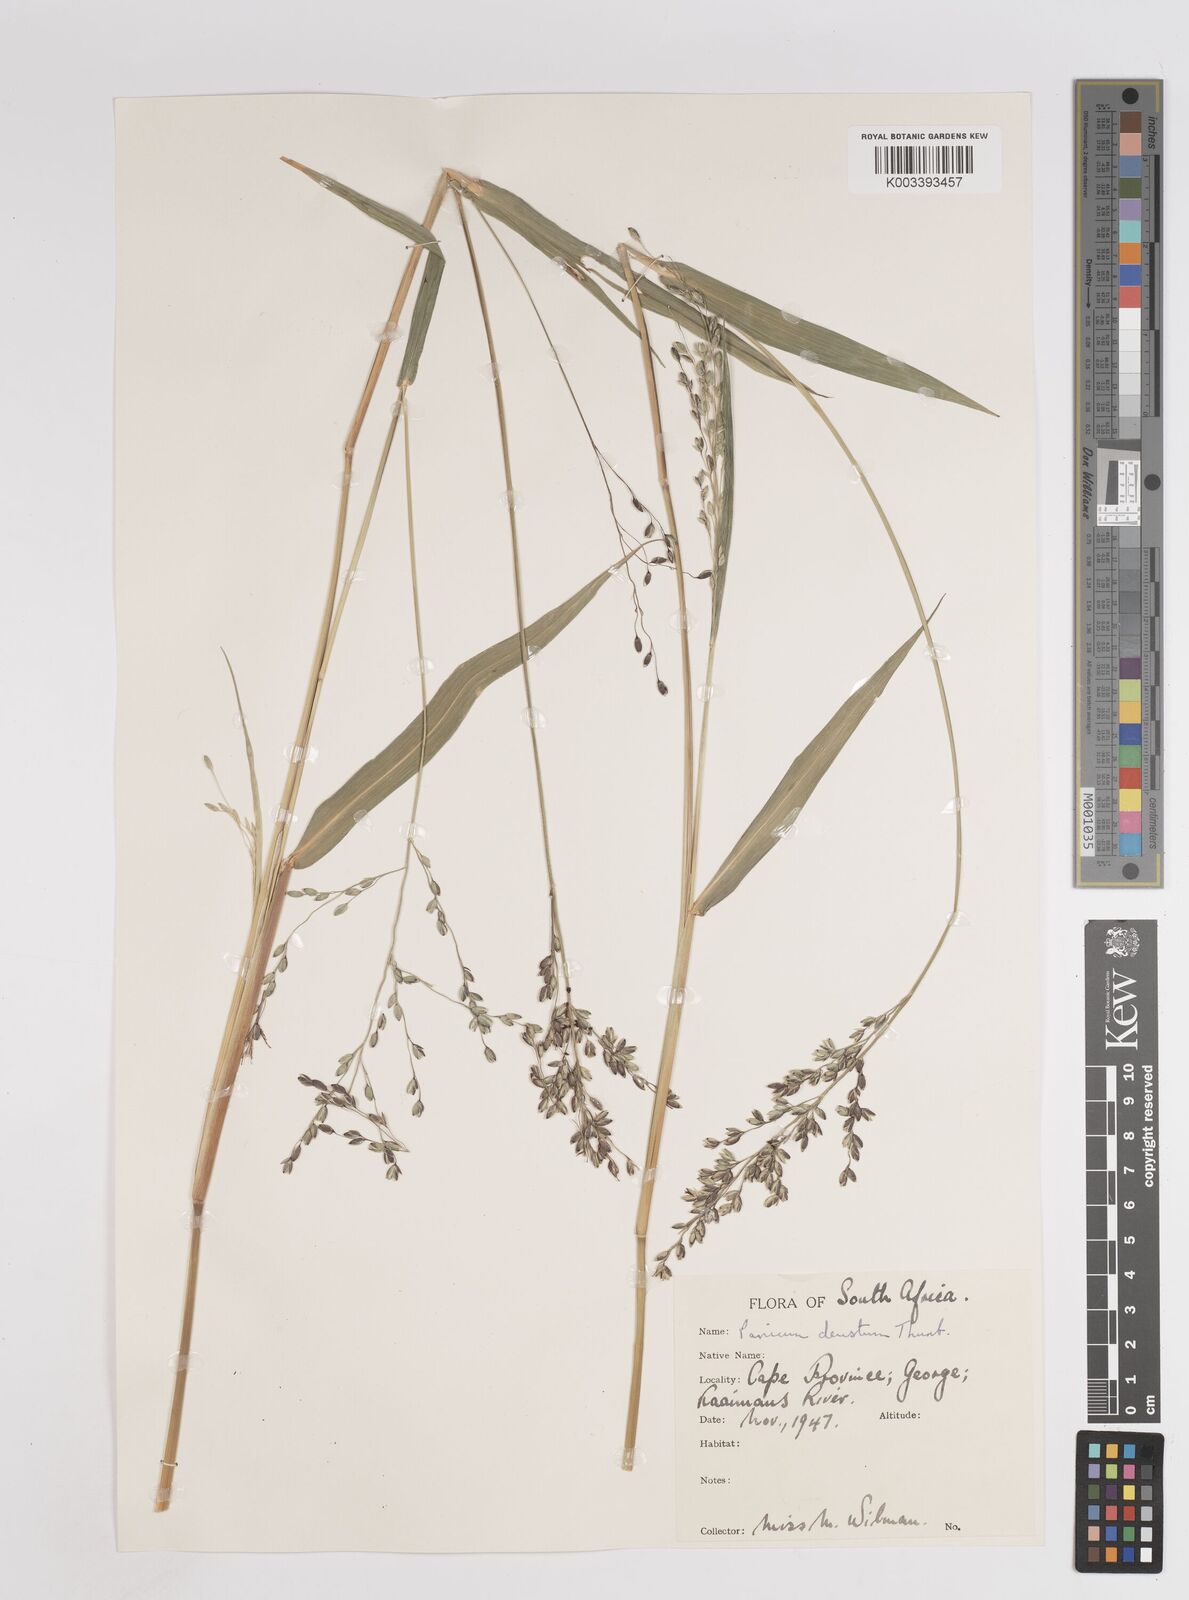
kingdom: Plantae
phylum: Tracheophyta
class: Liliopsida
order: Poales
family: Poaceae
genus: Panicum
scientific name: Panicum deustum
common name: Reed panicum
